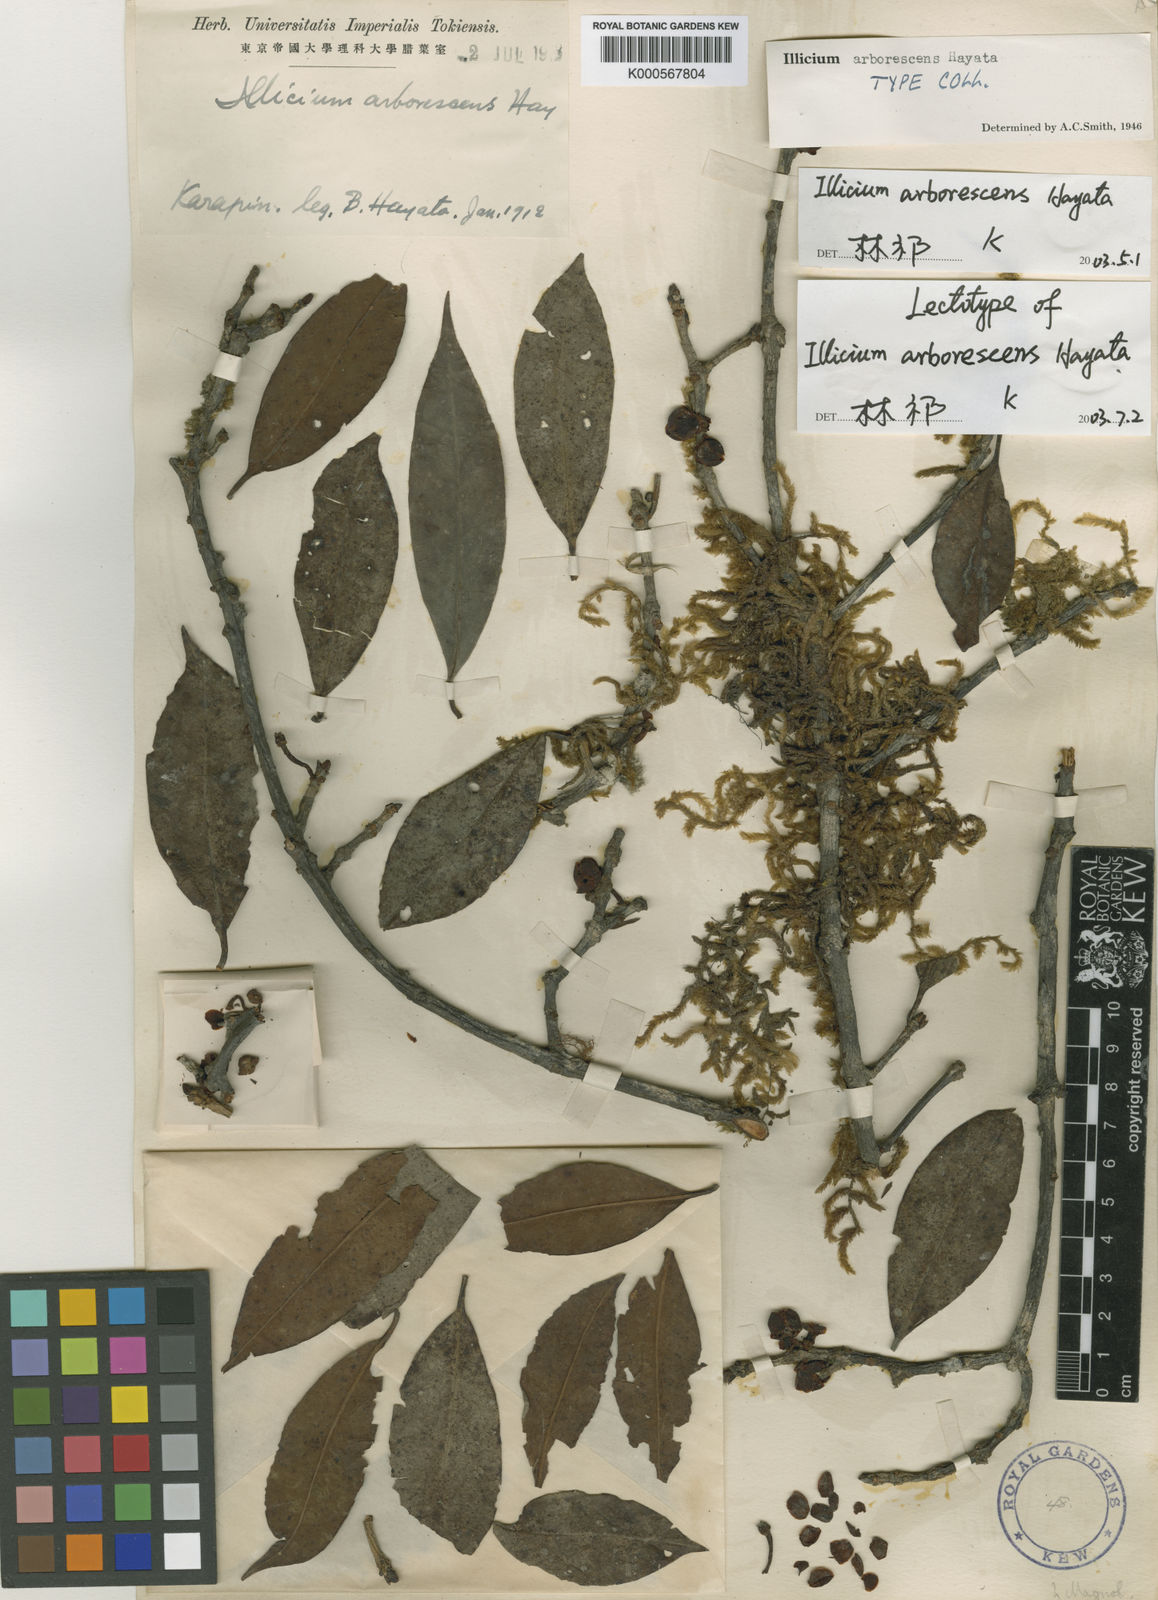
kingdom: Plantae
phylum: Tracheophyta
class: Magnoliopsida
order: Austrobaileyales
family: Schisandraceae
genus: Illicium
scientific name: Illicium arborescens
